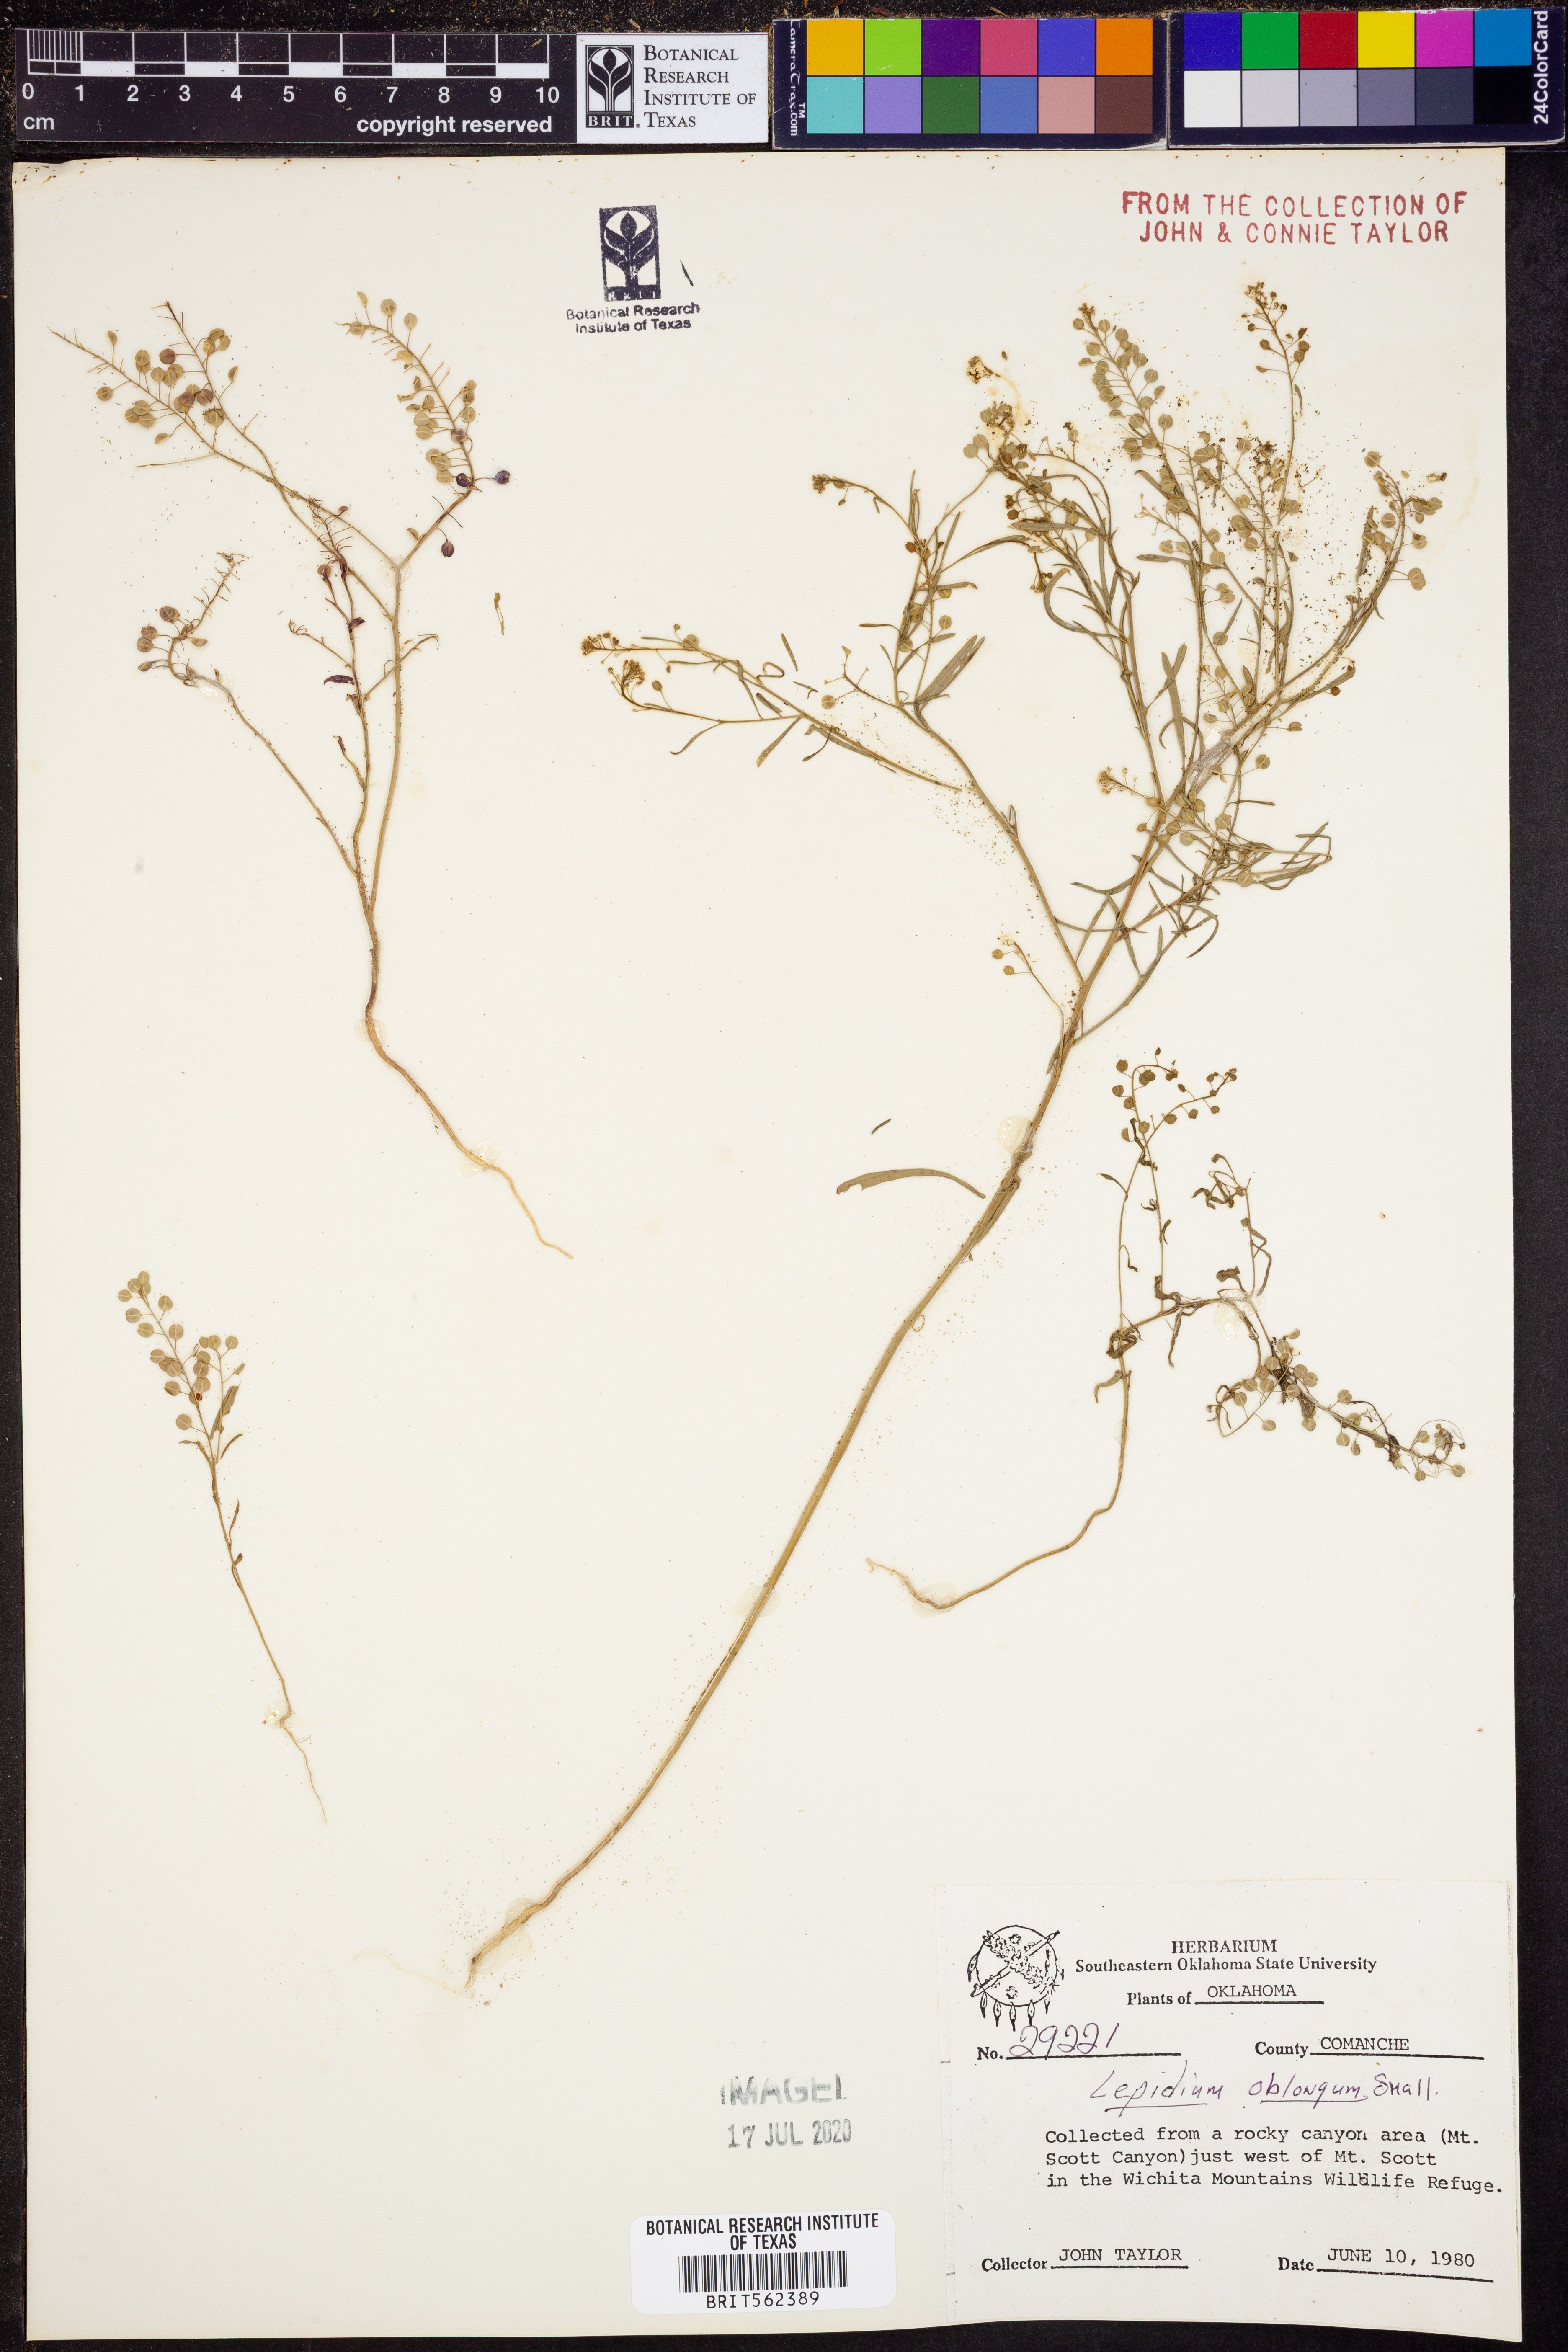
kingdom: Plantae
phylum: Tracheophyta
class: Magnoliopsida
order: Brassicales
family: Brassicaceae
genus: Lepidium
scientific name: Lepidium oblongum
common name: Veiny pepperweed
